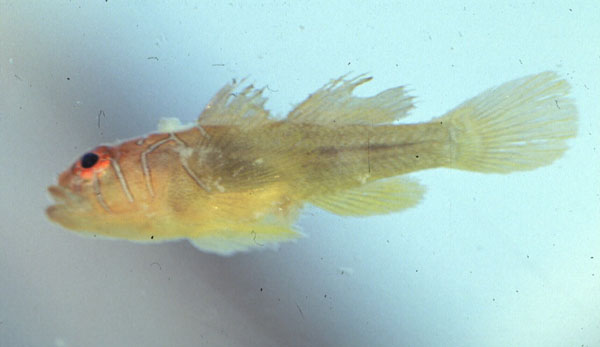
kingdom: Animalia
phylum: Chordata
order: Perciformes
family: Gobiidae
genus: Priolepis
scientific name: Priolepis semidoliata
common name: Barrel goby
